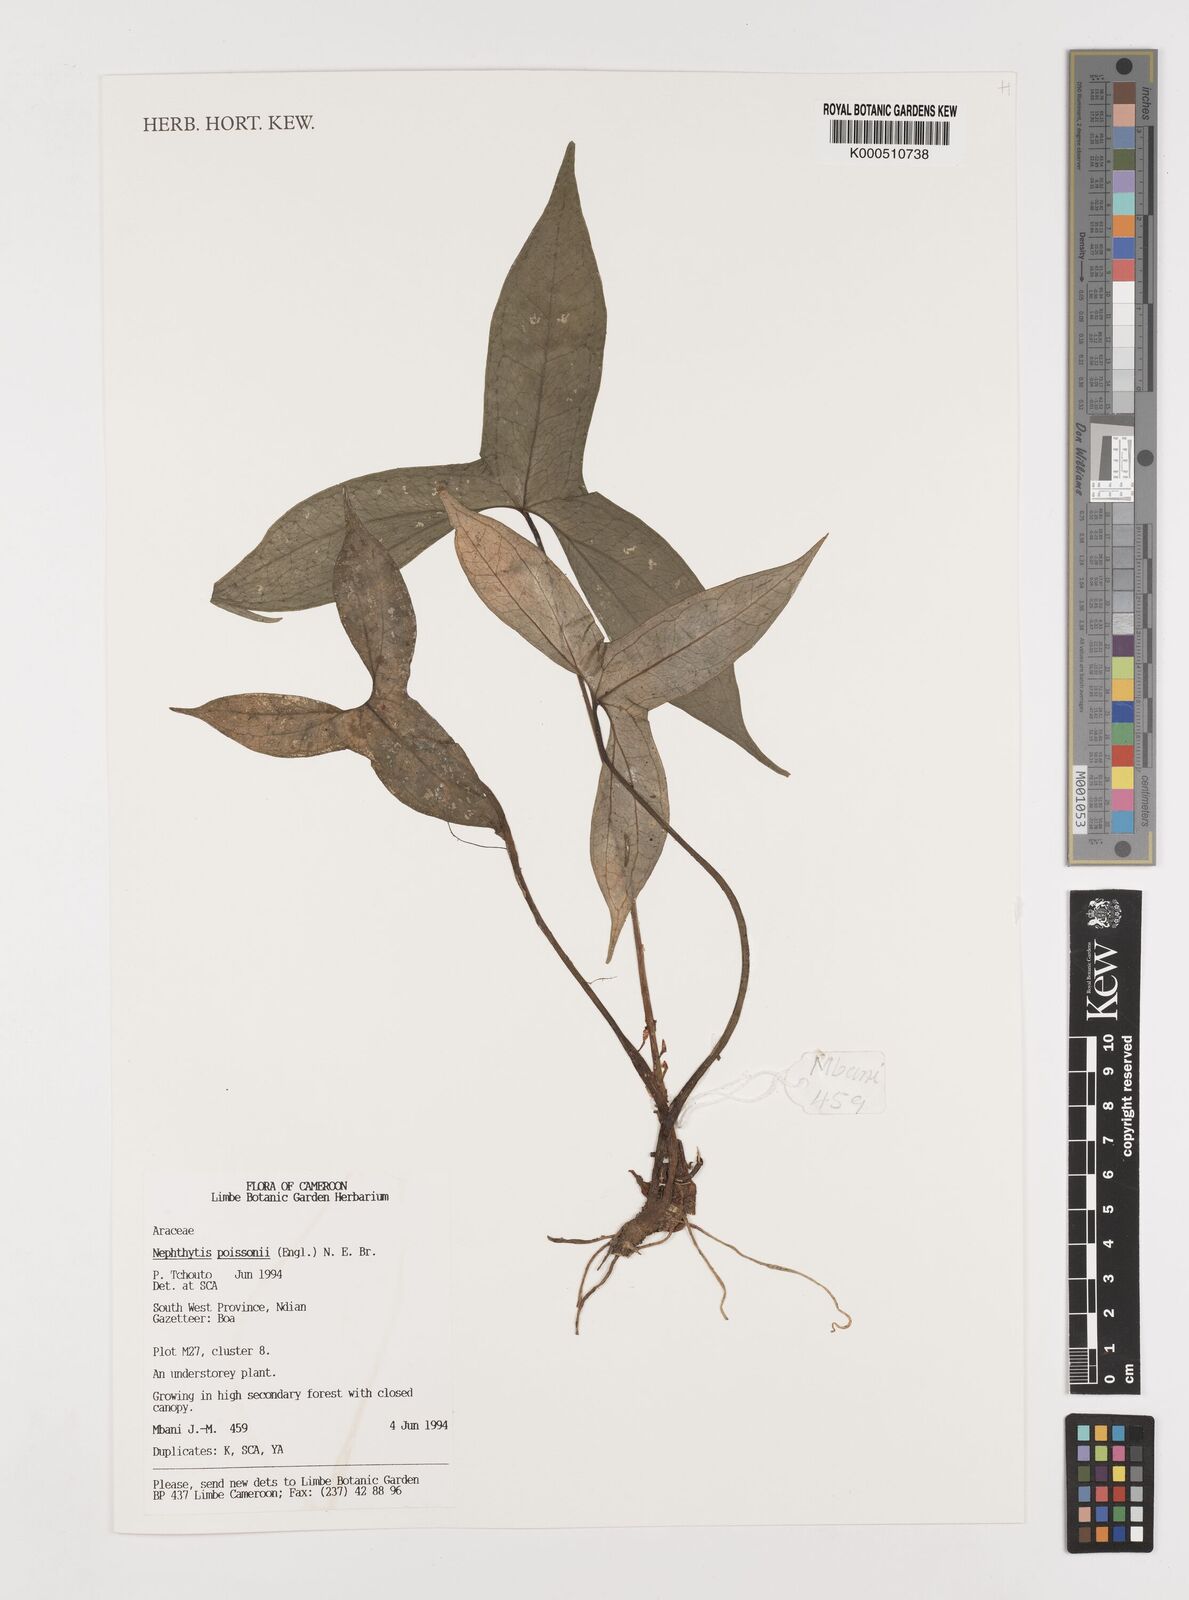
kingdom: Plantae
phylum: Tracheophyta
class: Liliopsida
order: Alismatales
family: Araceae
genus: Nephthytis
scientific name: Nephthytis poissonii
